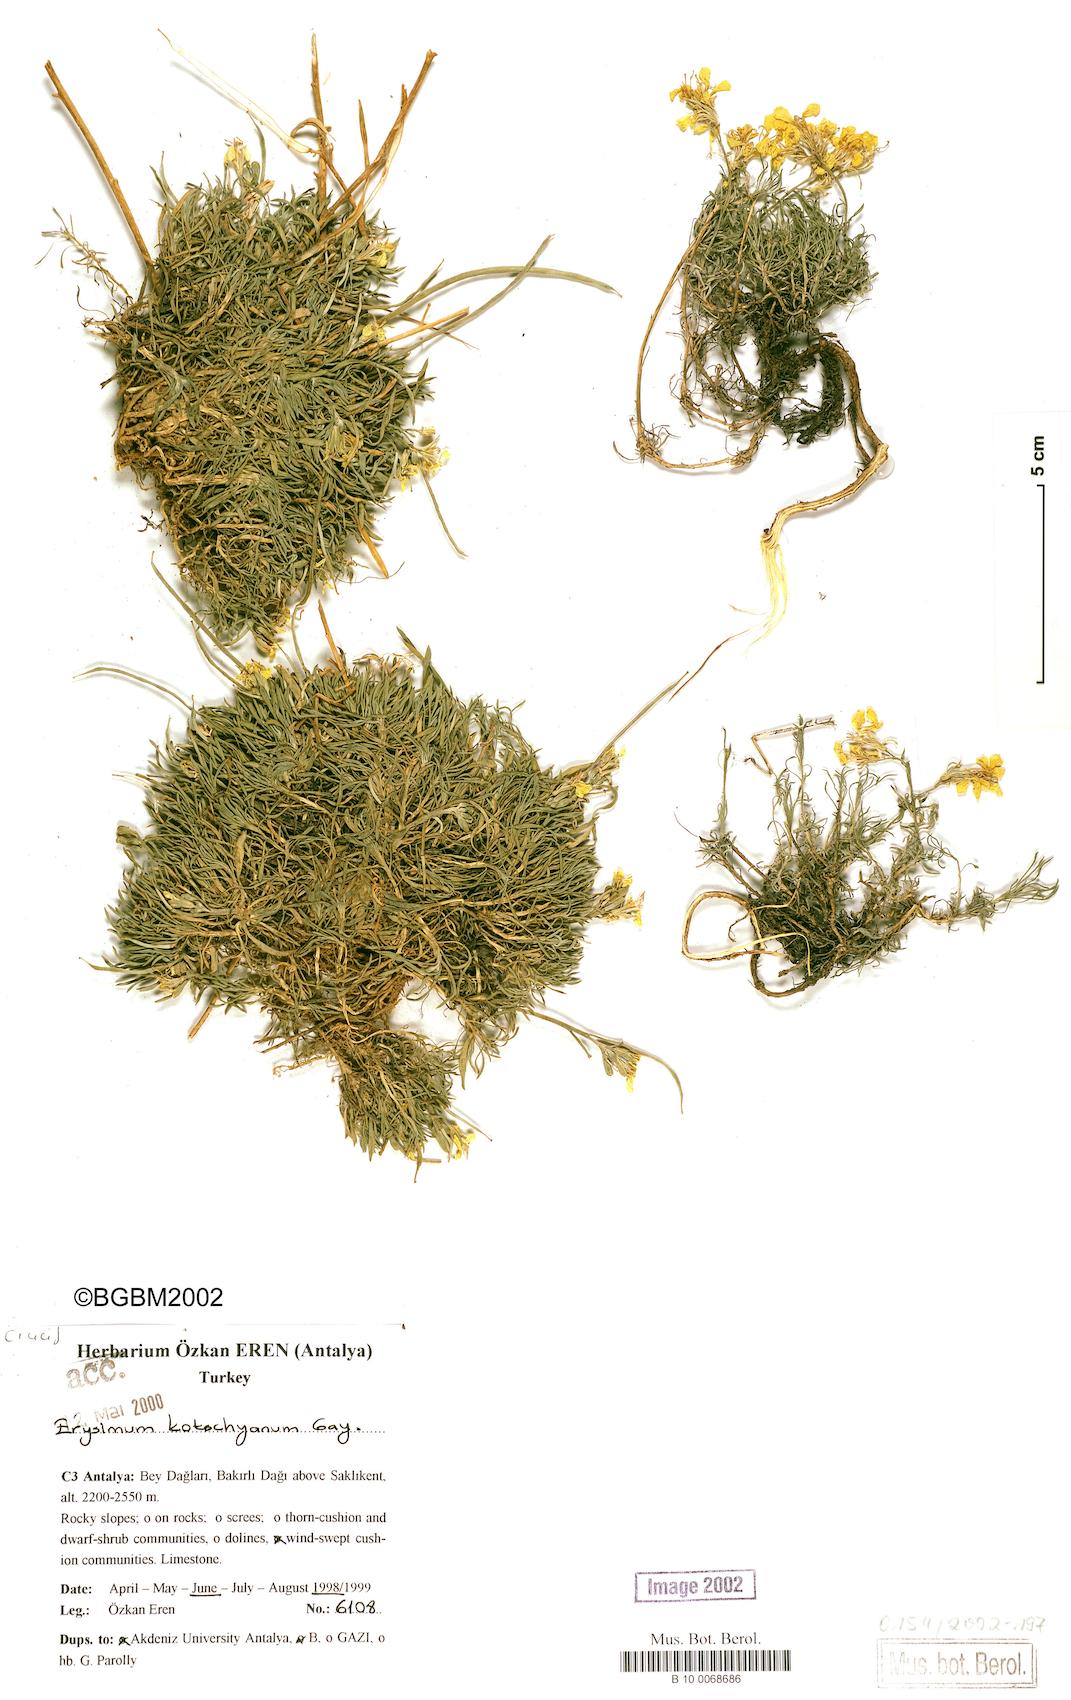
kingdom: Plantae
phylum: Tracheophyta
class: Magnoliopsida
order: Brassicales
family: Brassicaceae
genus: Erysimum
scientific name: Erysimum kotschyanum
